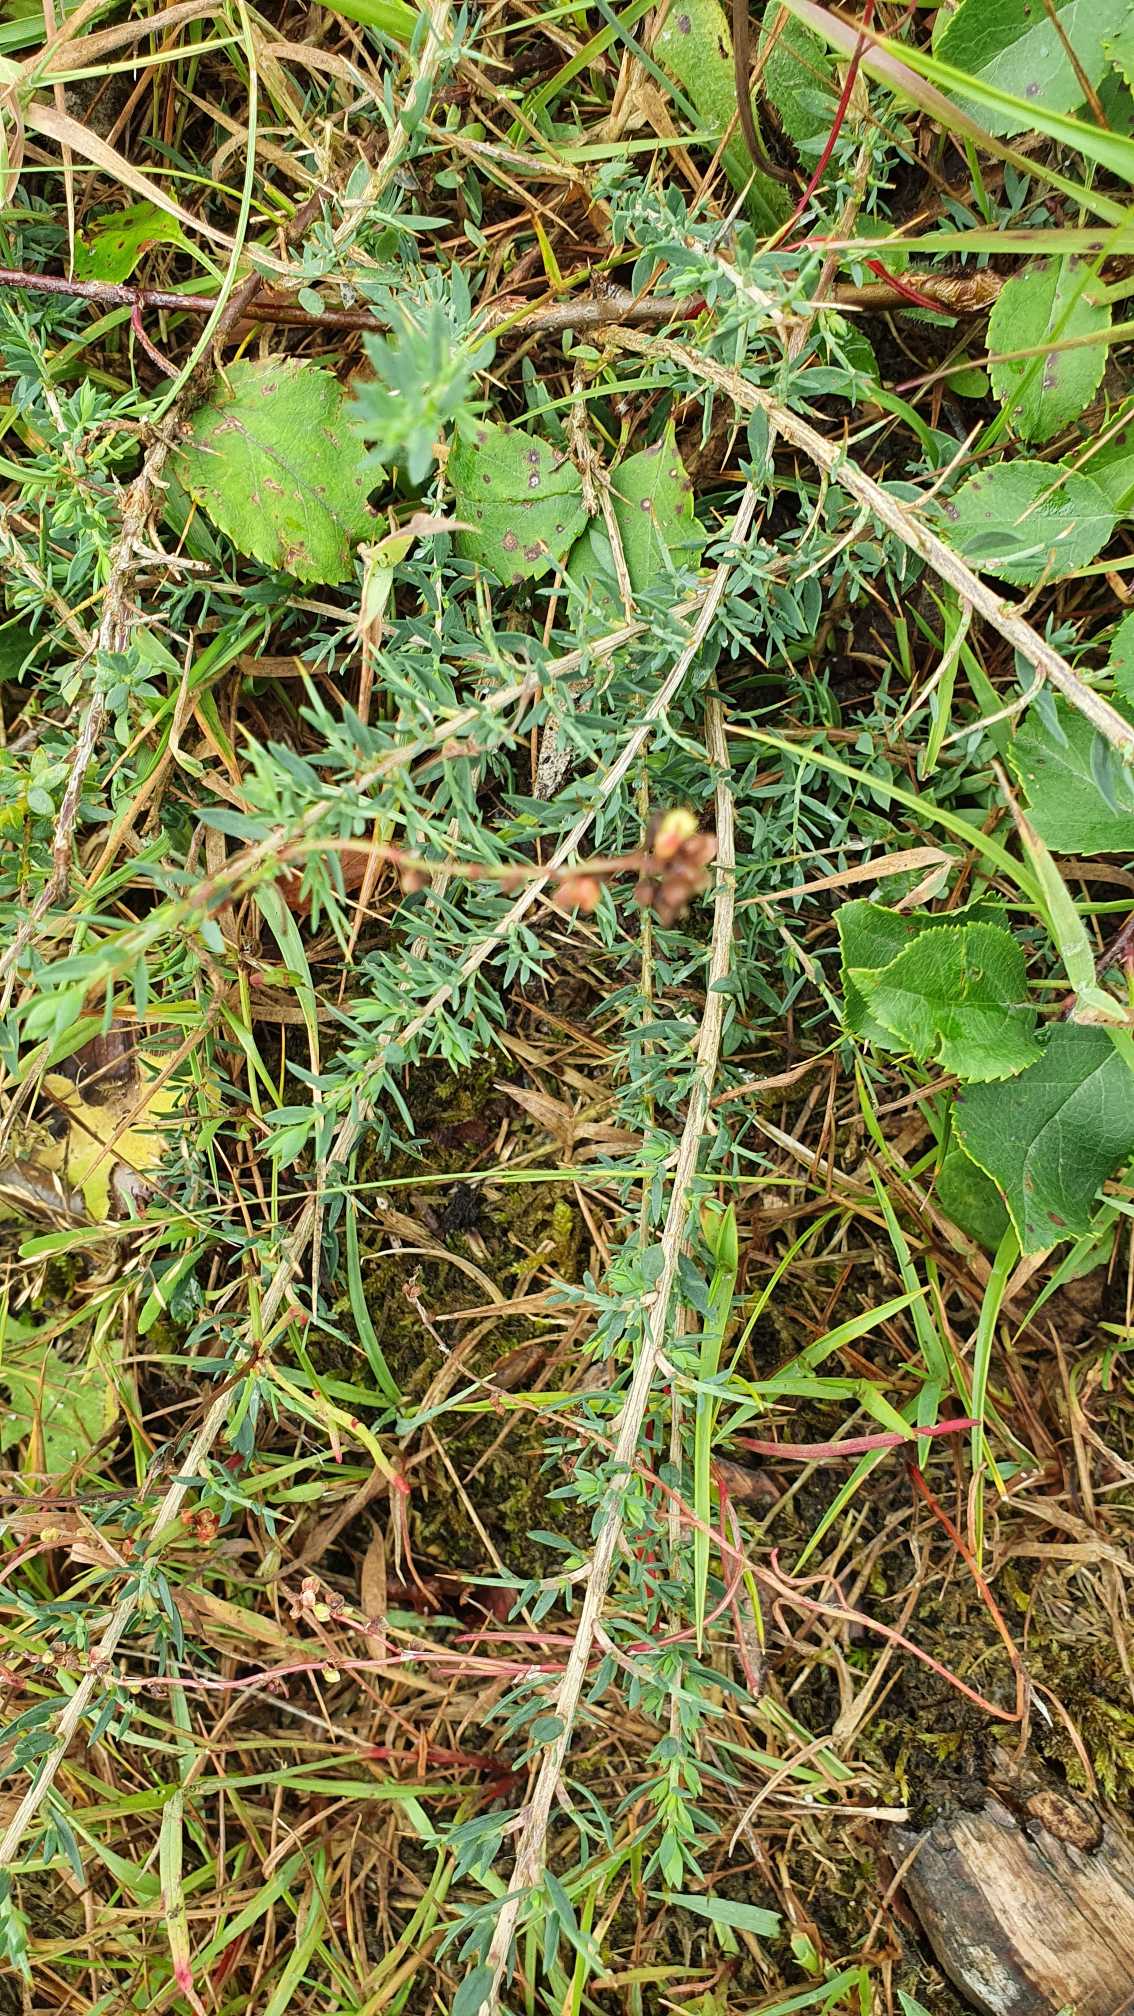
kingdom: Plantae
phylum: Tracheophyta
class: Magnoliopsida
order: Fabales
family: Fabaceae
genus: Genista
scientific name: Genista anglica
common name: Engelsk visse
